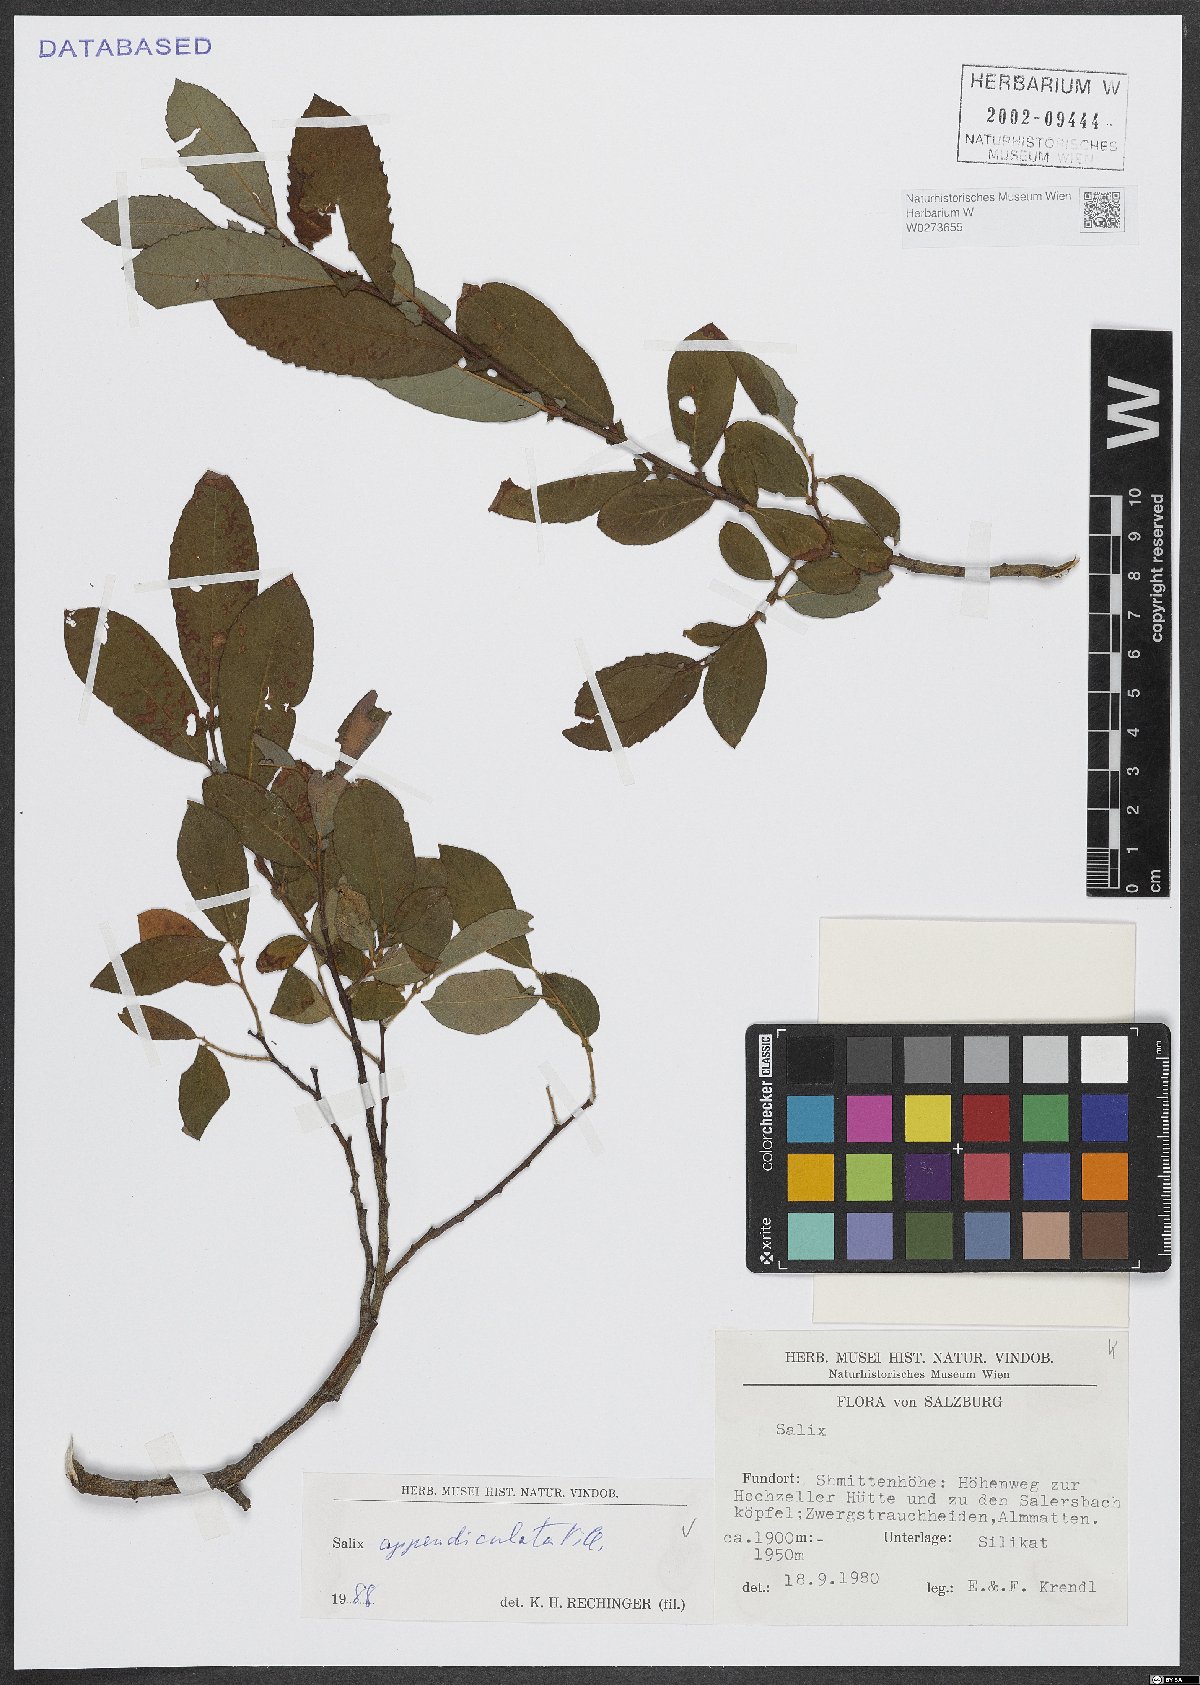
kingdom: Plantae
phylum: Tracheophyta
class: Magnoliopsida
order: Malpighiales
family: Salicaceae
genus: Salix
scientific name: Salix appendiculata
